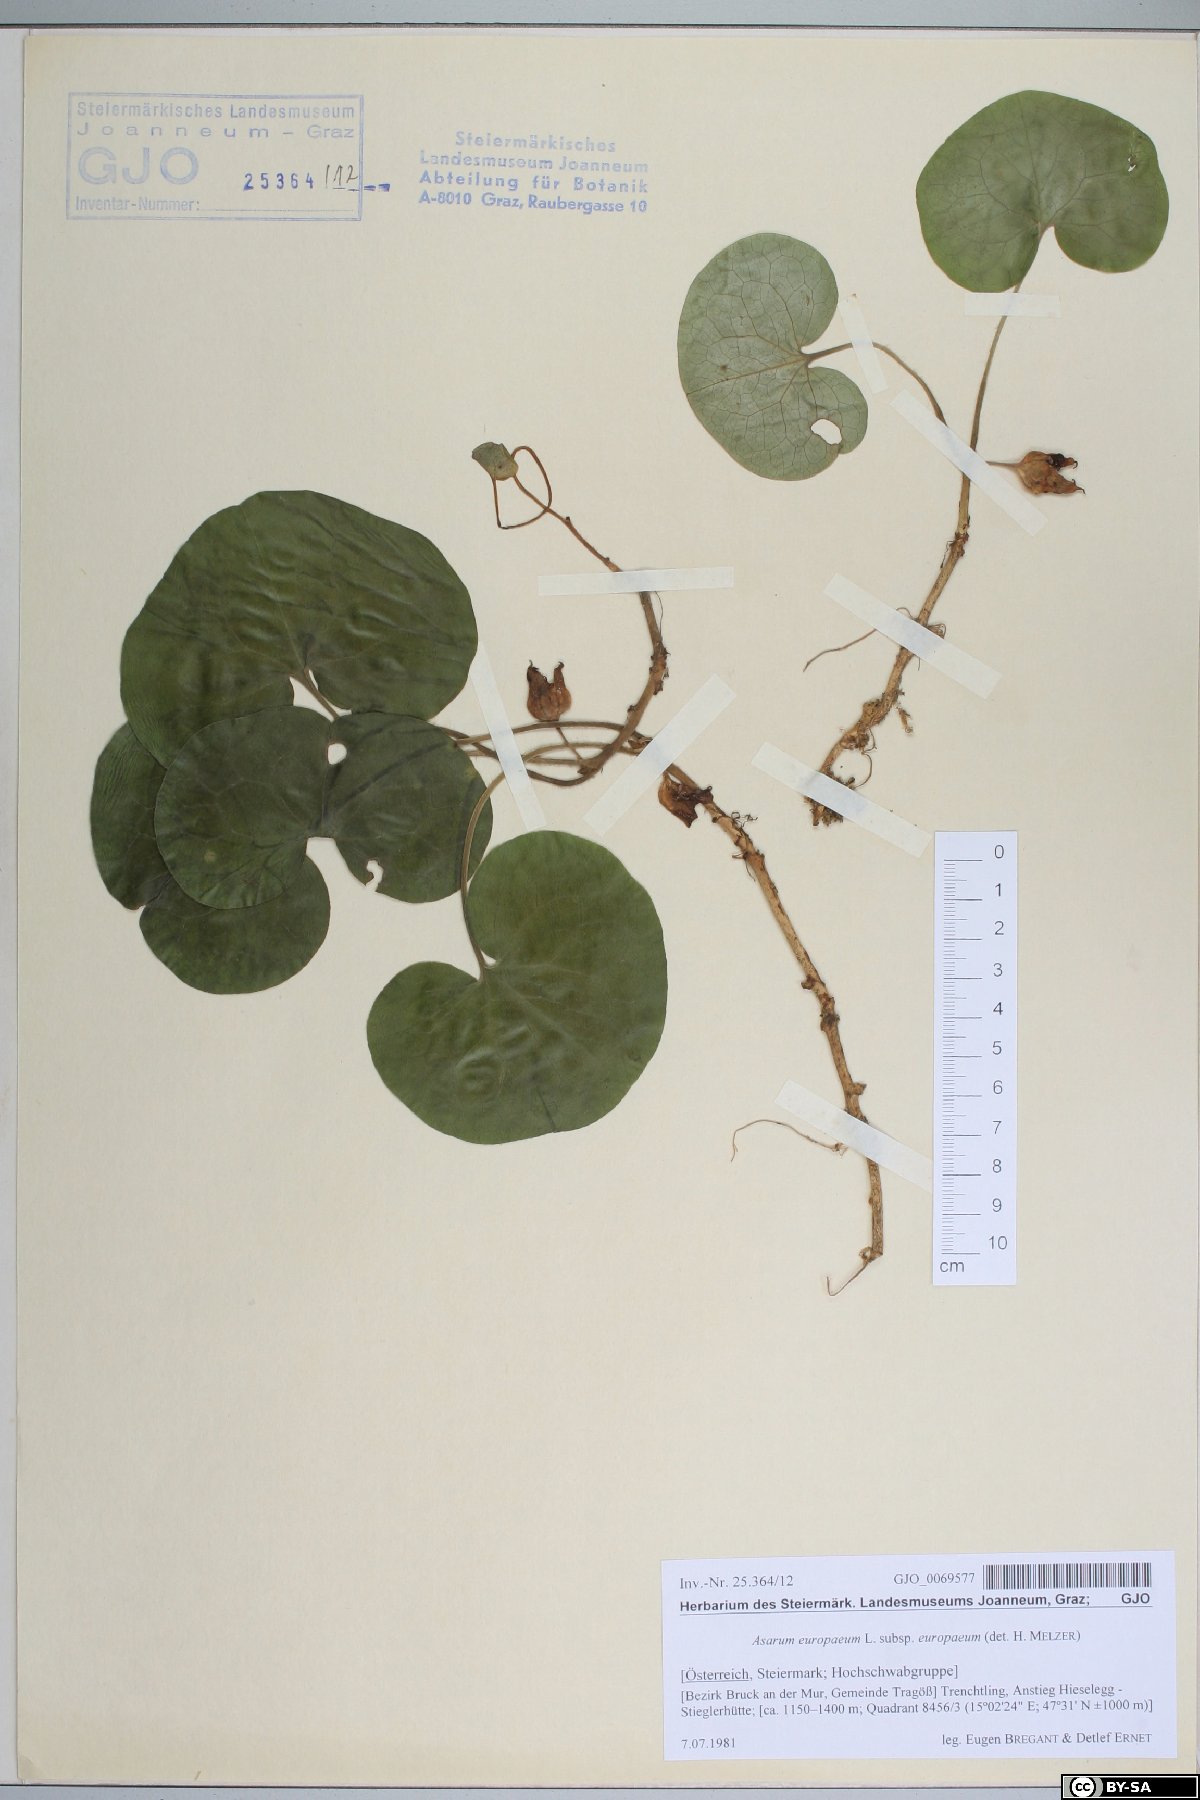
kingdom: Plantae
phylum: Tracheophyta
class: Magnoliopsida
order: Piperales
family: Aristolochiaceae
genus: Asarum
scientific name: Asarum europaeum
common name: Asarabacca
